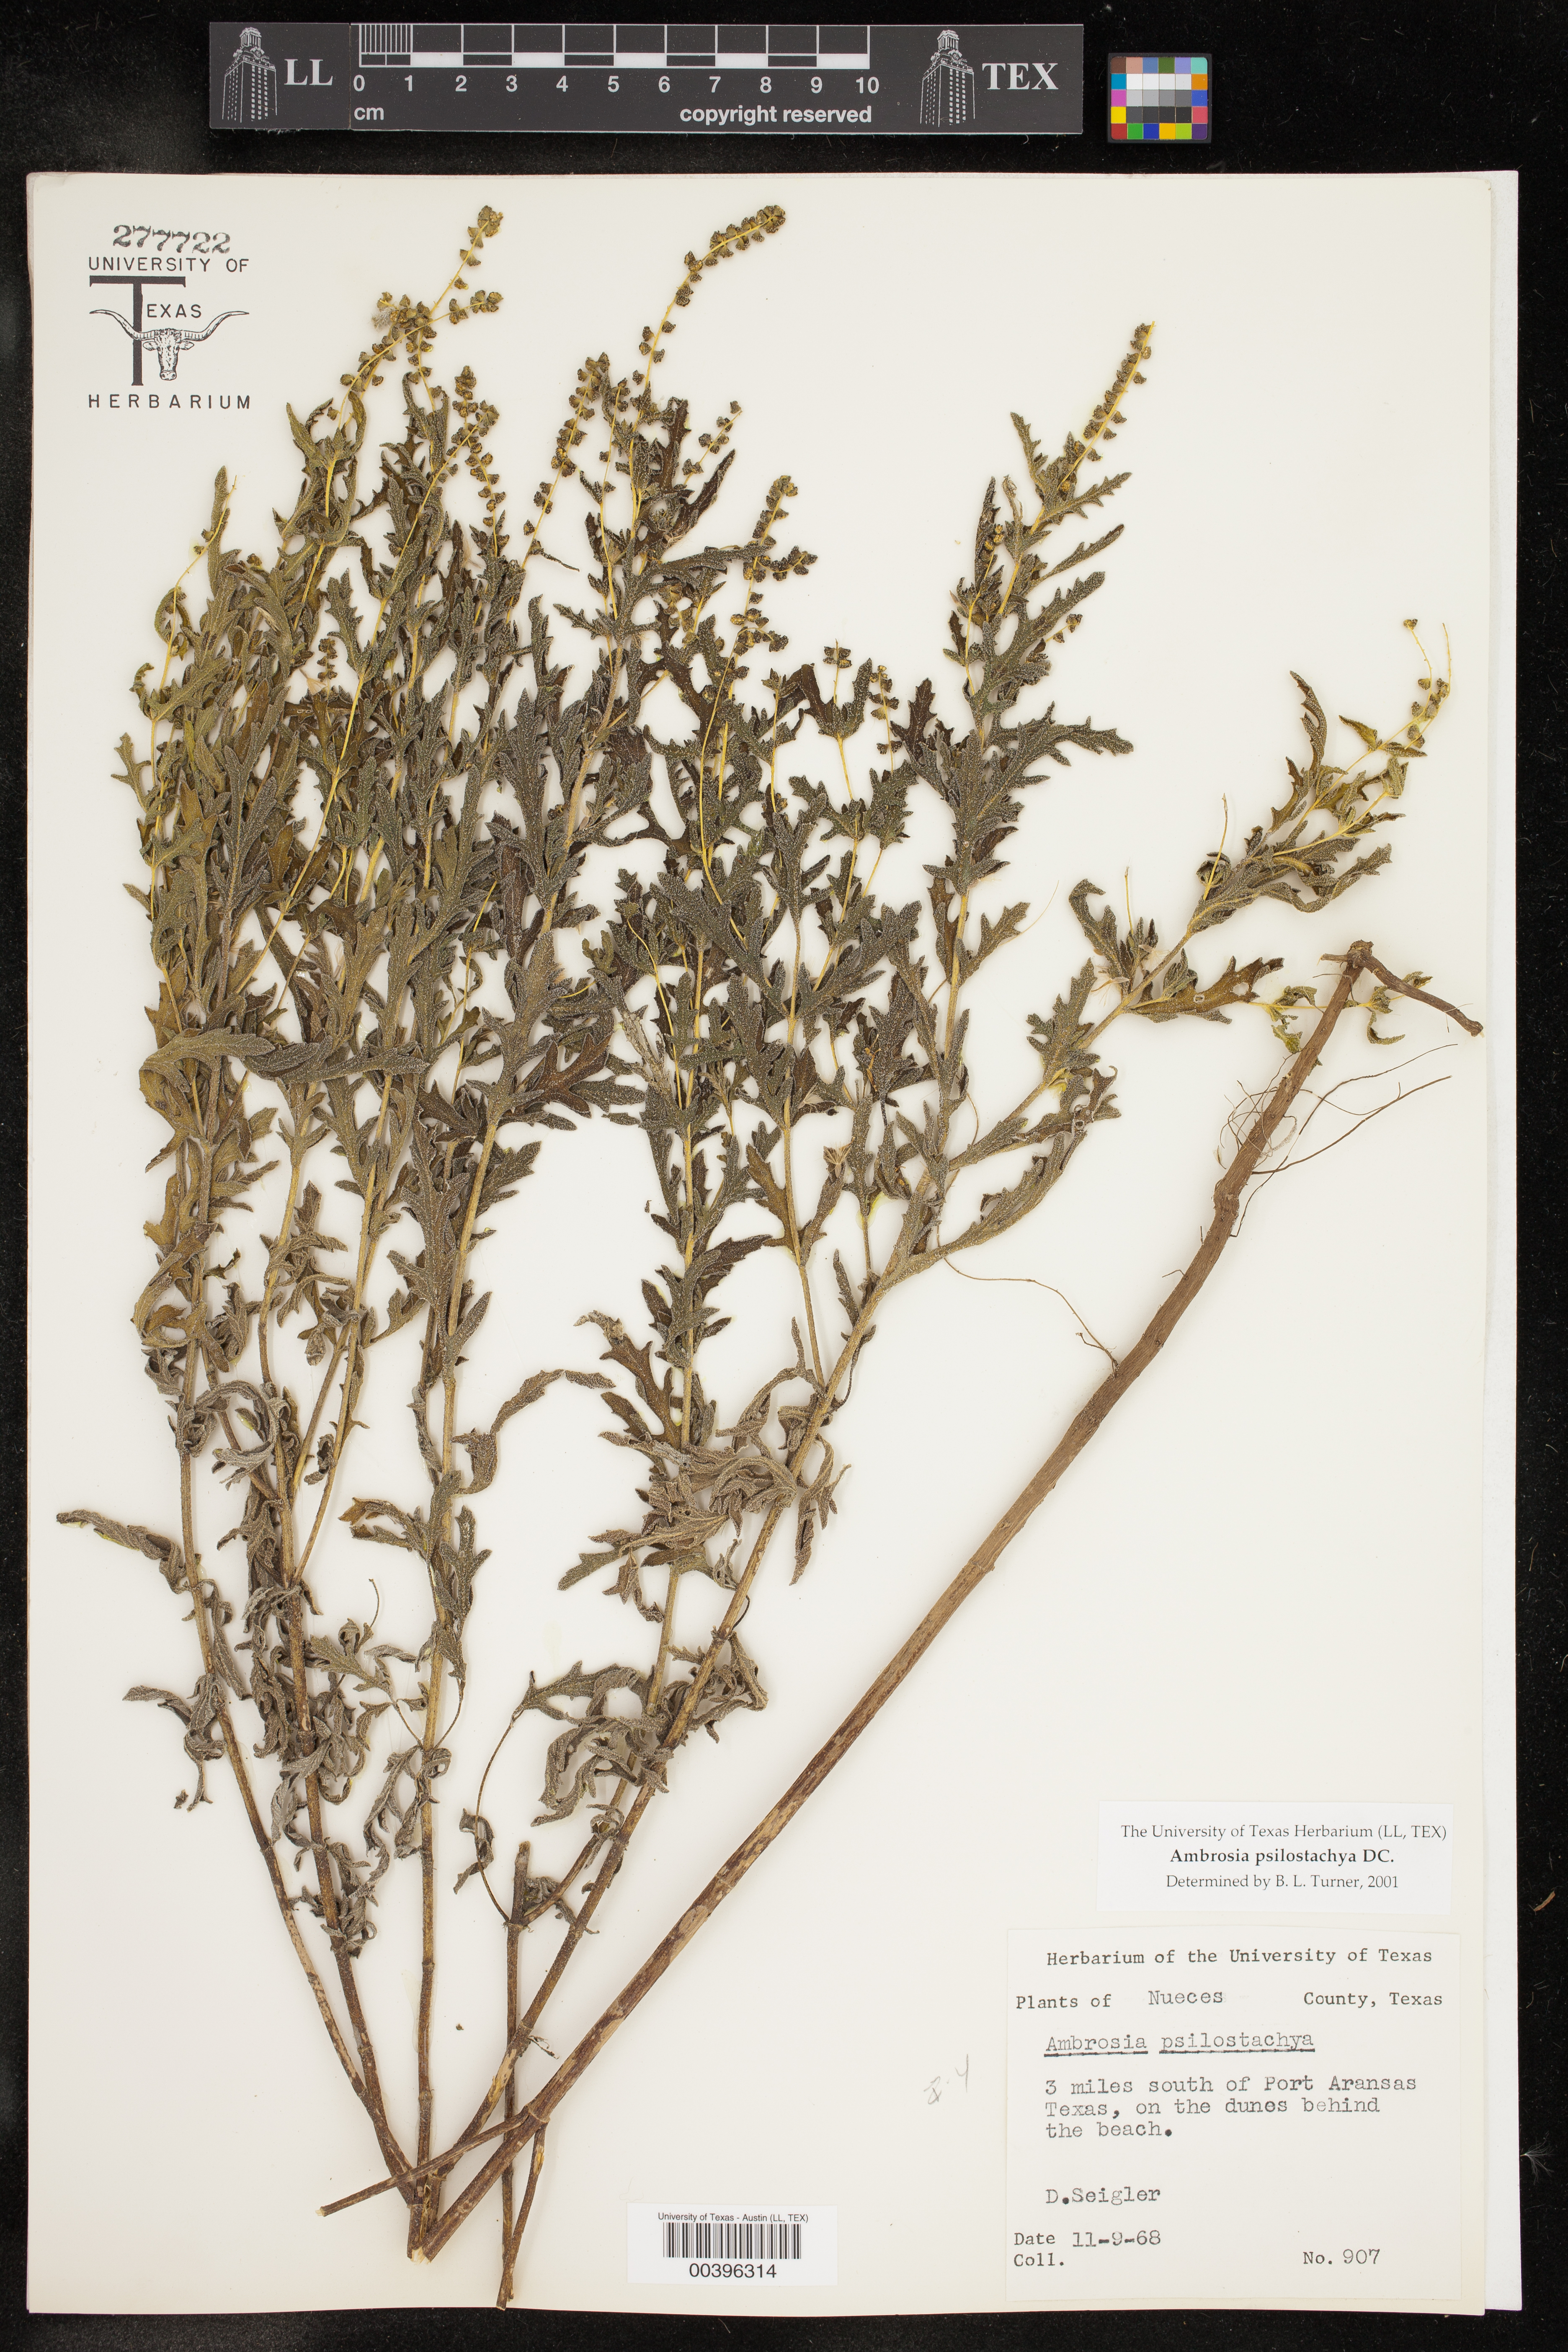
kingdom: Plantae
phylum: Tracheophyta
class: Magnoliopsida
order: Asterales
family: Asteraceae
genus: Ambrosia
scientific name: Ambrosia psilostachya
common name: Perennial ragweed
